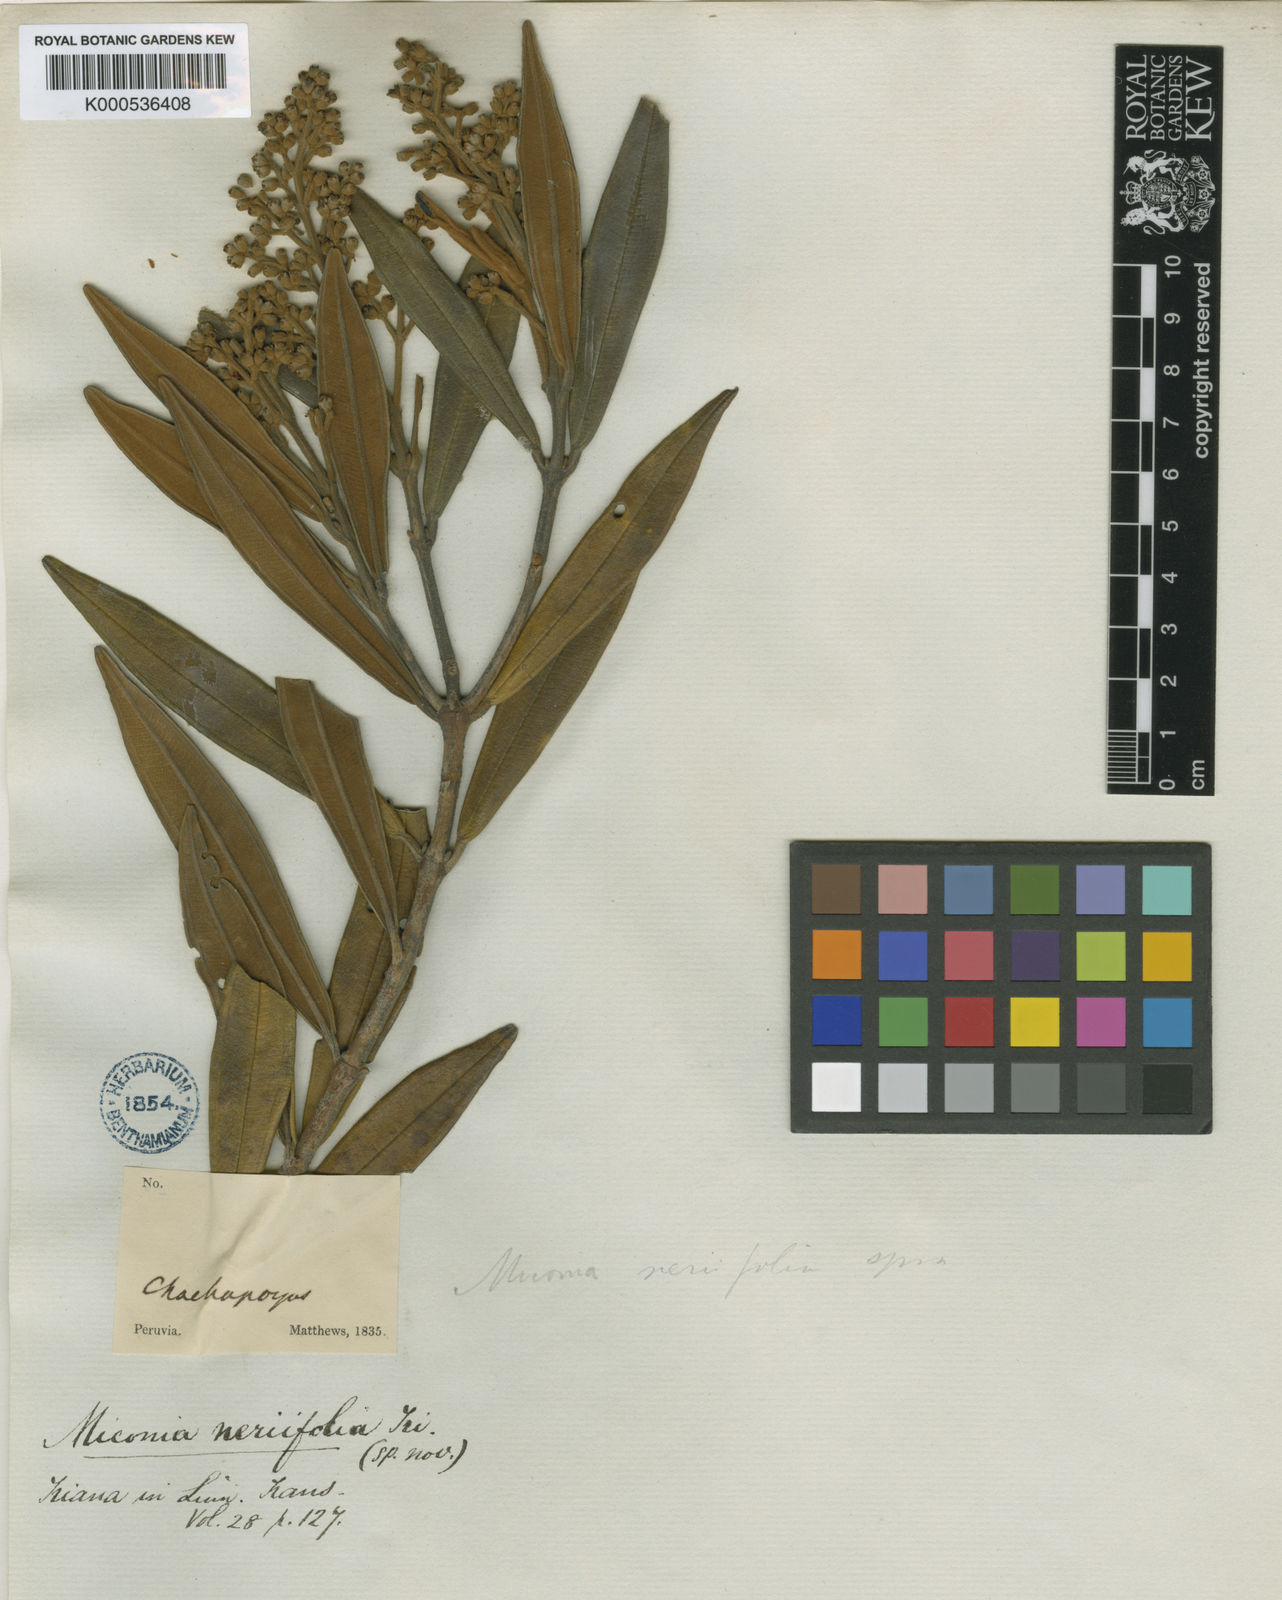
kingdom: Plantae
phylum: Tracheophyta
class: Magnoliopsida
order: Myrtales
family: Melastomataceae
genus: Miconia
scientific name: Miconia neriifolia
